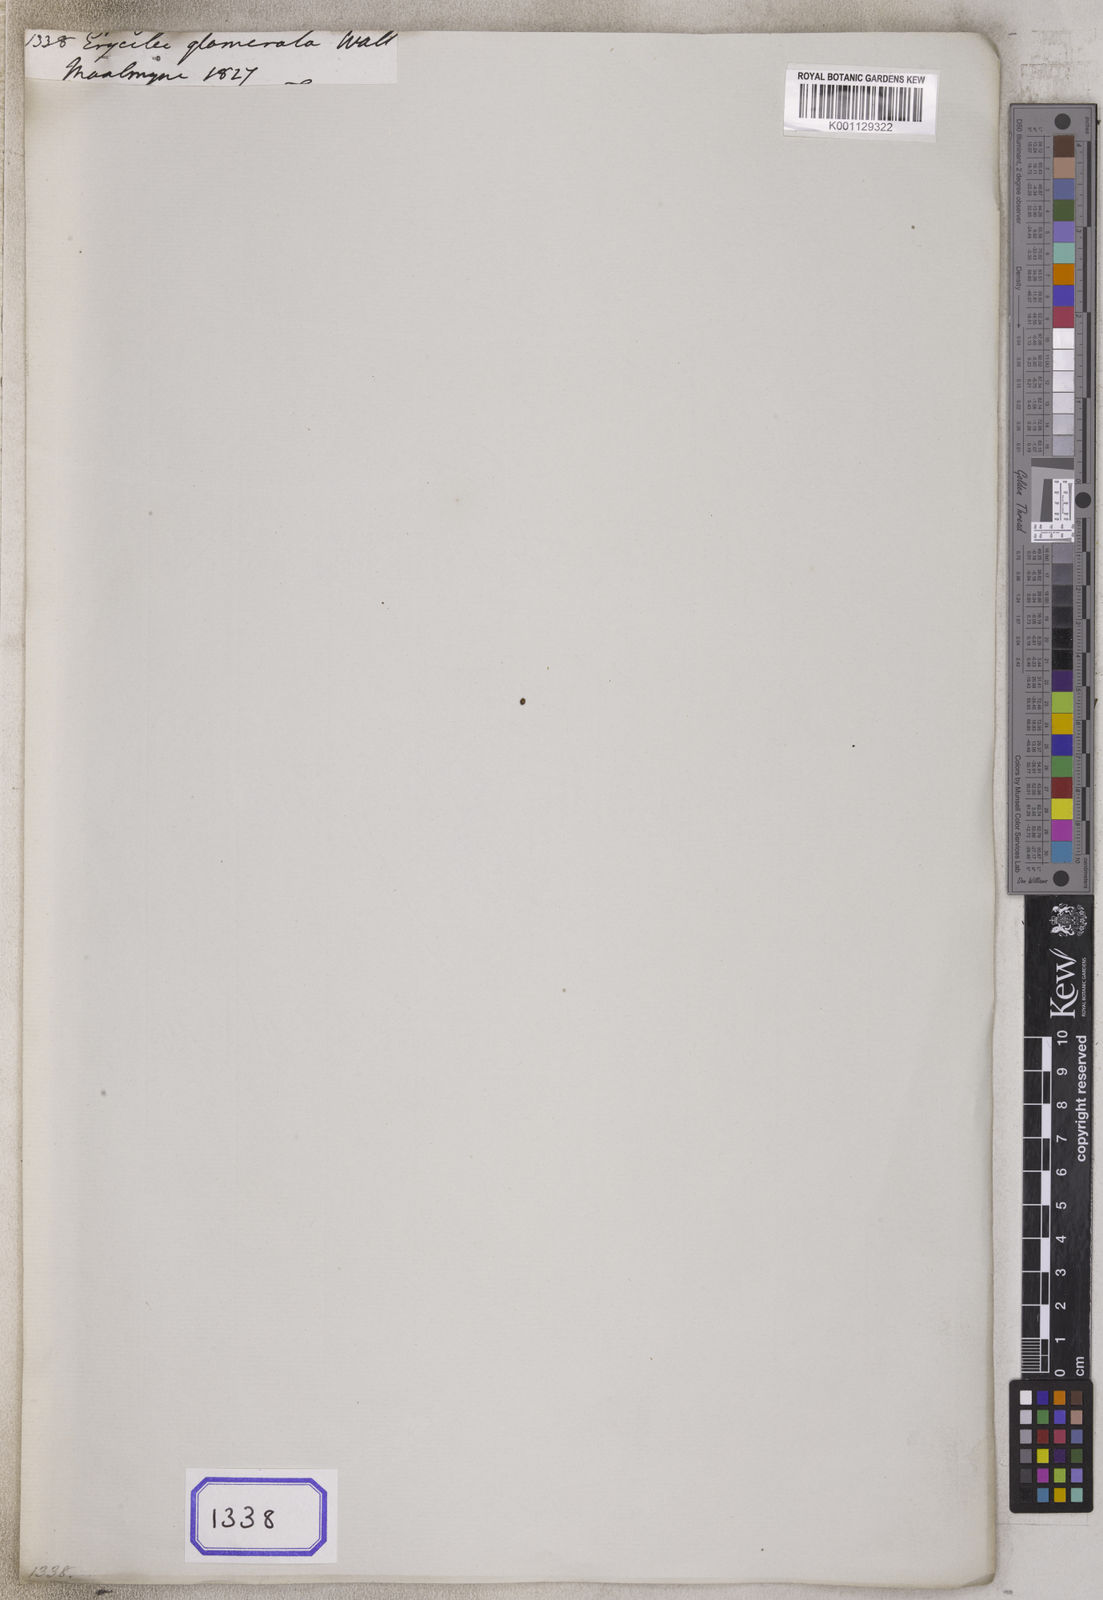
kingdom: Plantae
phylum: Tracheophyta
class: Magnoliopsida
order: Solanales
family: Convolvulaceae
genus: Erycibe
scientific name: Erycibe
